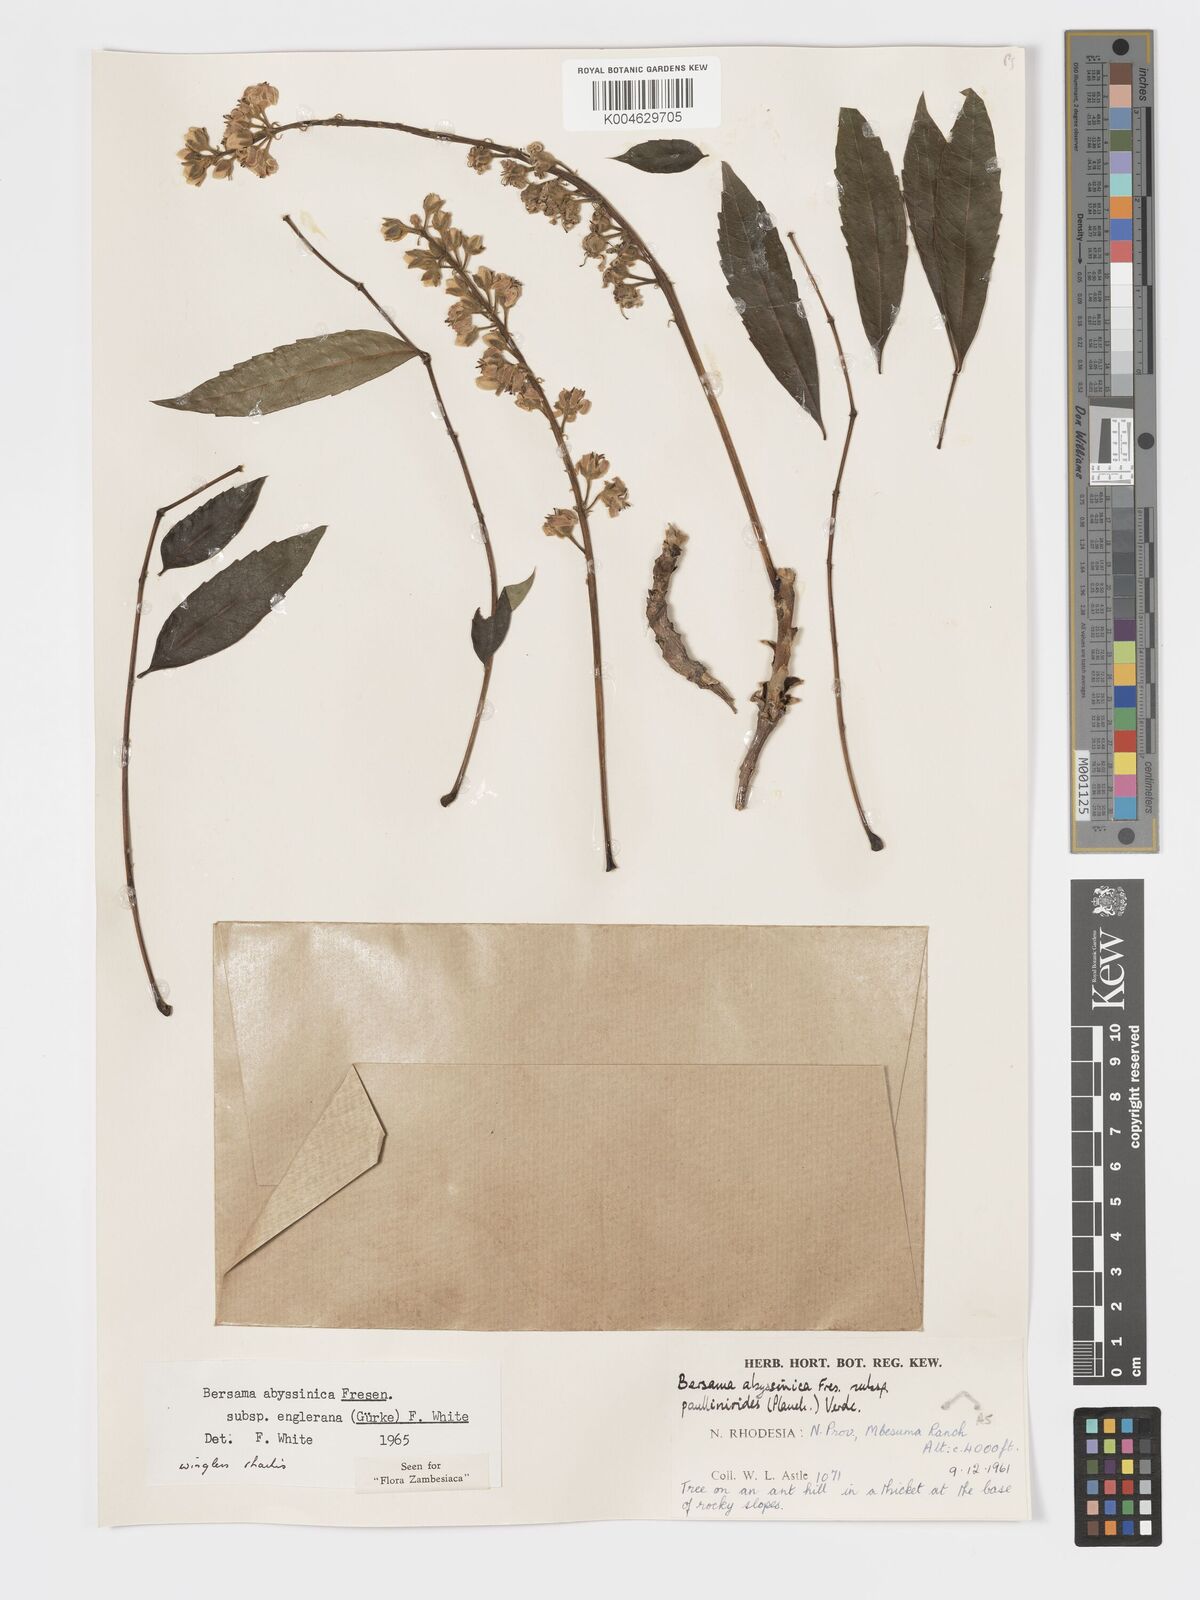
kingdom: Plantae
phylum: Tracheophyta
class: Magnoliopsida
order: Geraniales
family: Melianthaceae
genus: Bersama
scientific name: Bersama abyssinica
